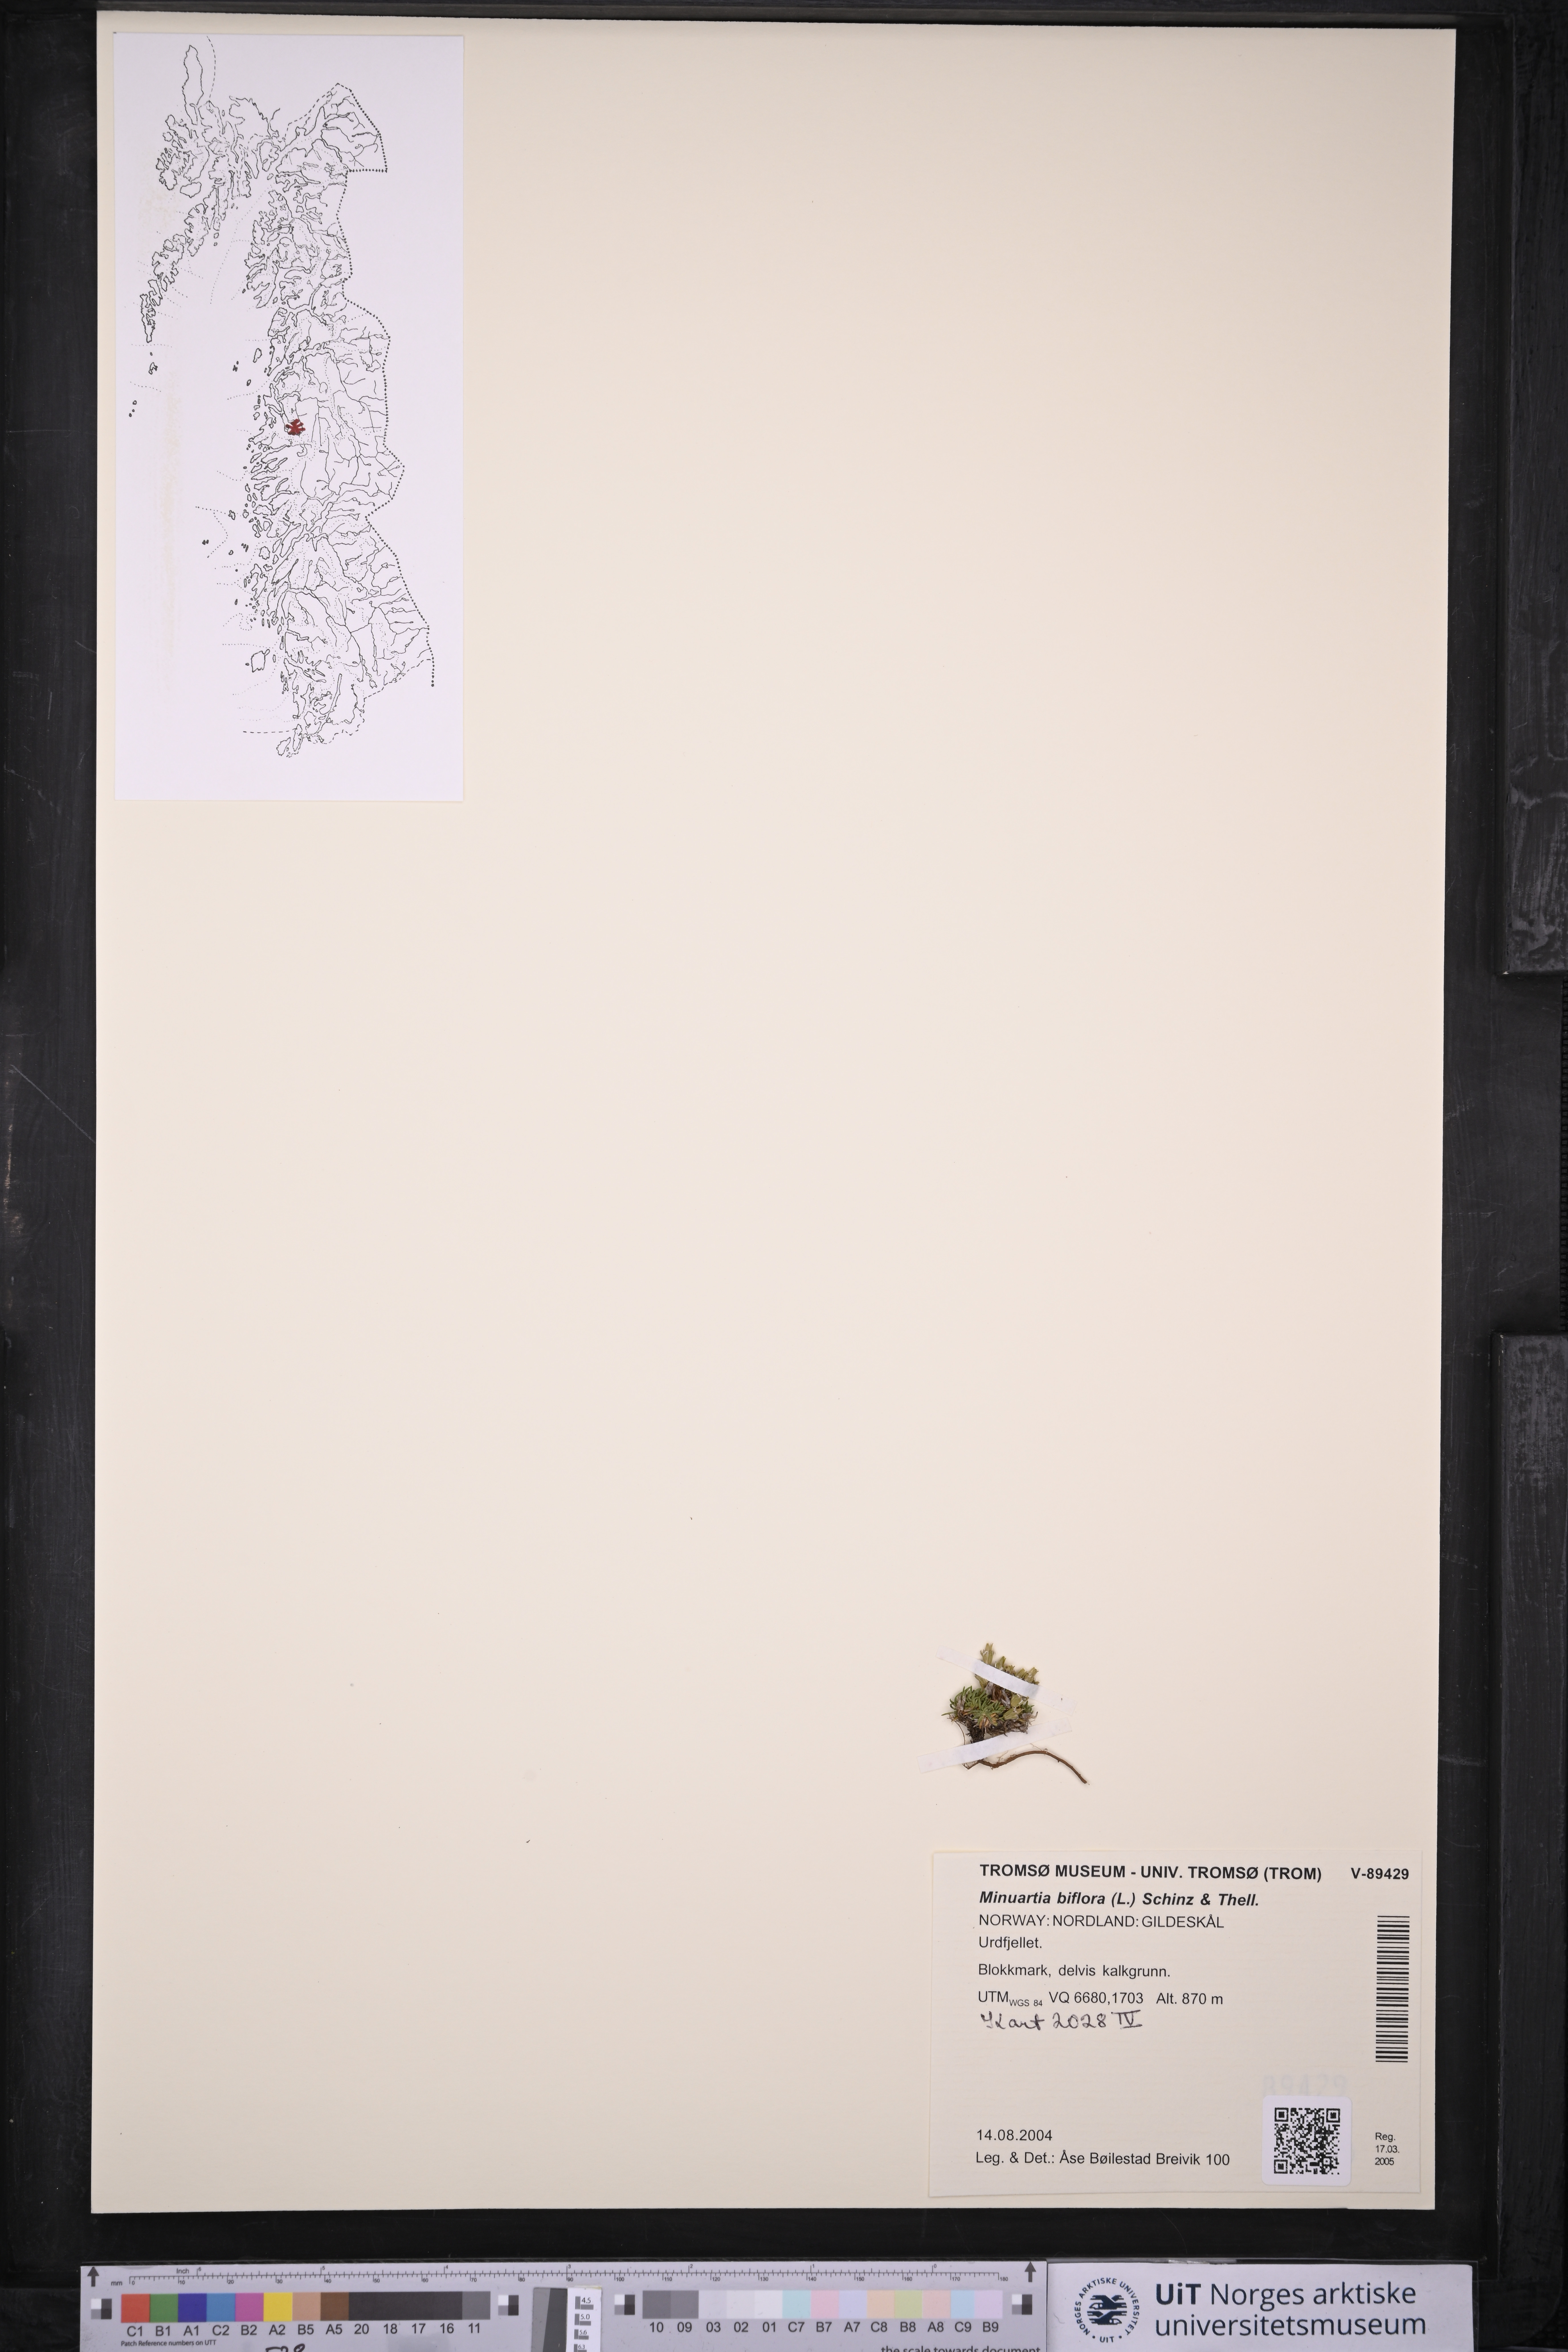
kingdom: Plantae
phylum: Tracheophyta
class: Magnoliopsida
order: Caryophyllales
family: Caryophyllaceae
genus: Cherleria
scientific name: Cherleria biflora
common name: Mountain sandwort
